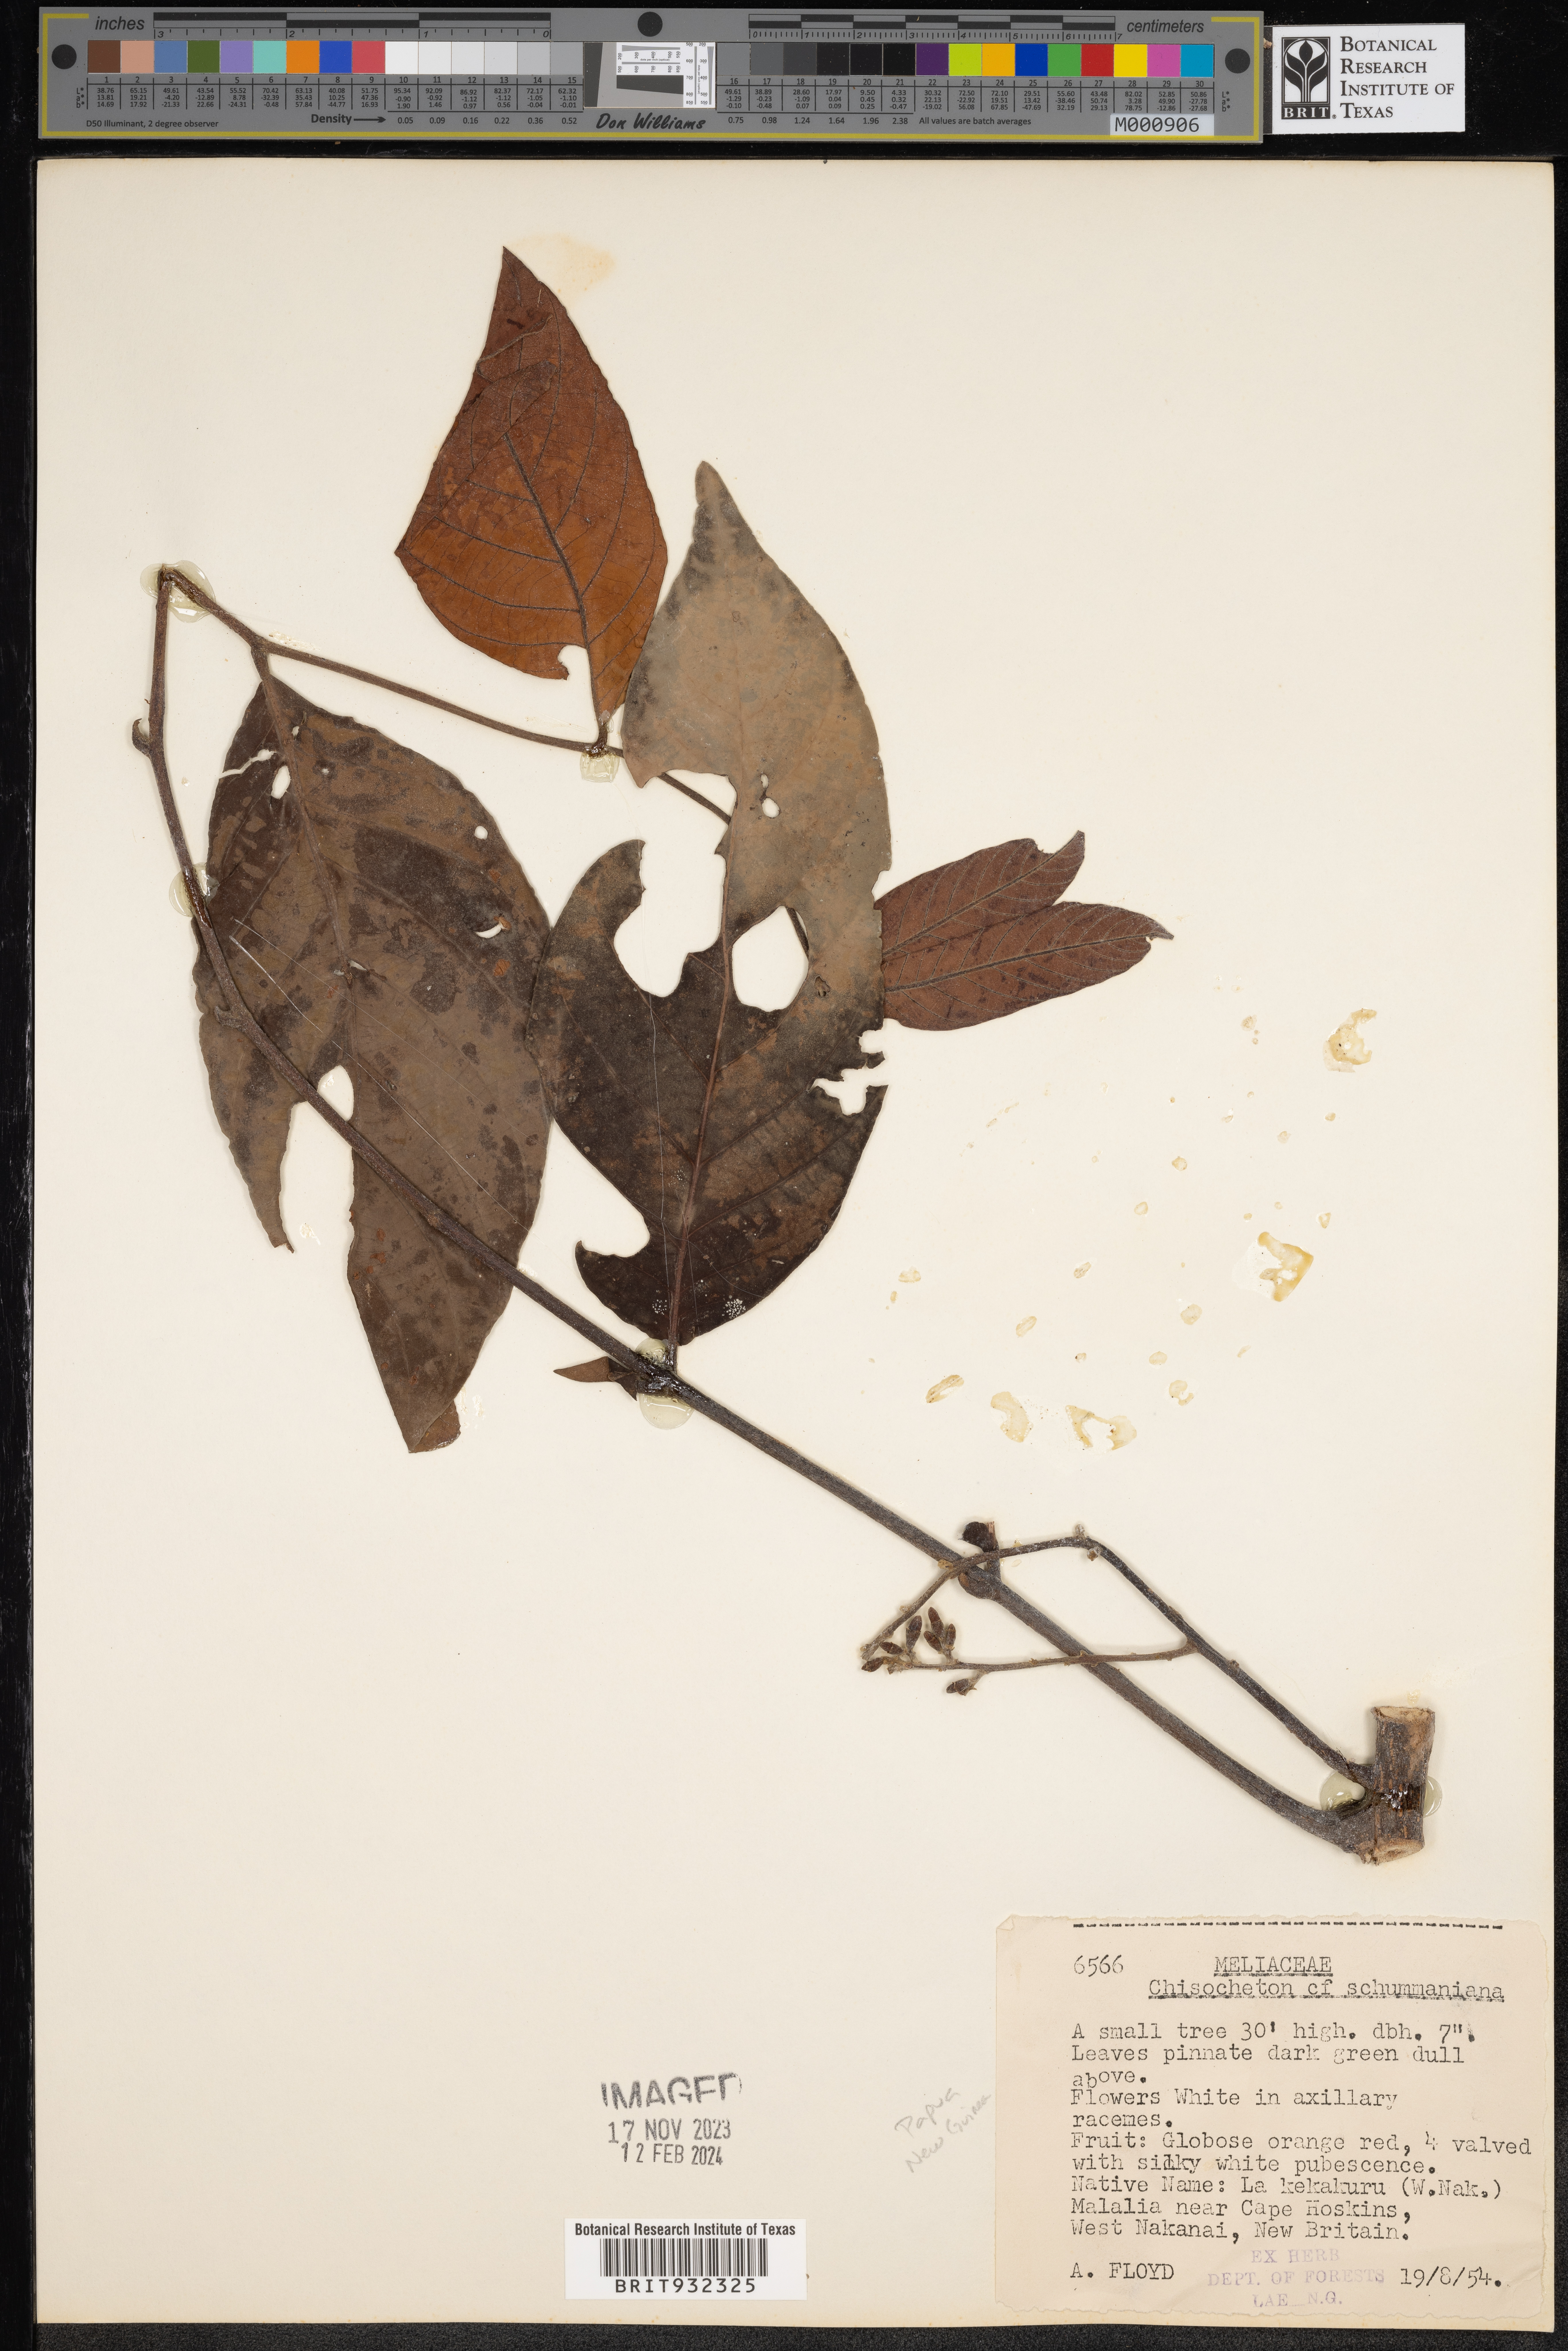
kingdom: Plantae
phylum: Tracheophyta
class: Magnoliopsida
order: Sapindales
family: Meliaceae
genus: Chisocheton
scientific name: Chisocheton
